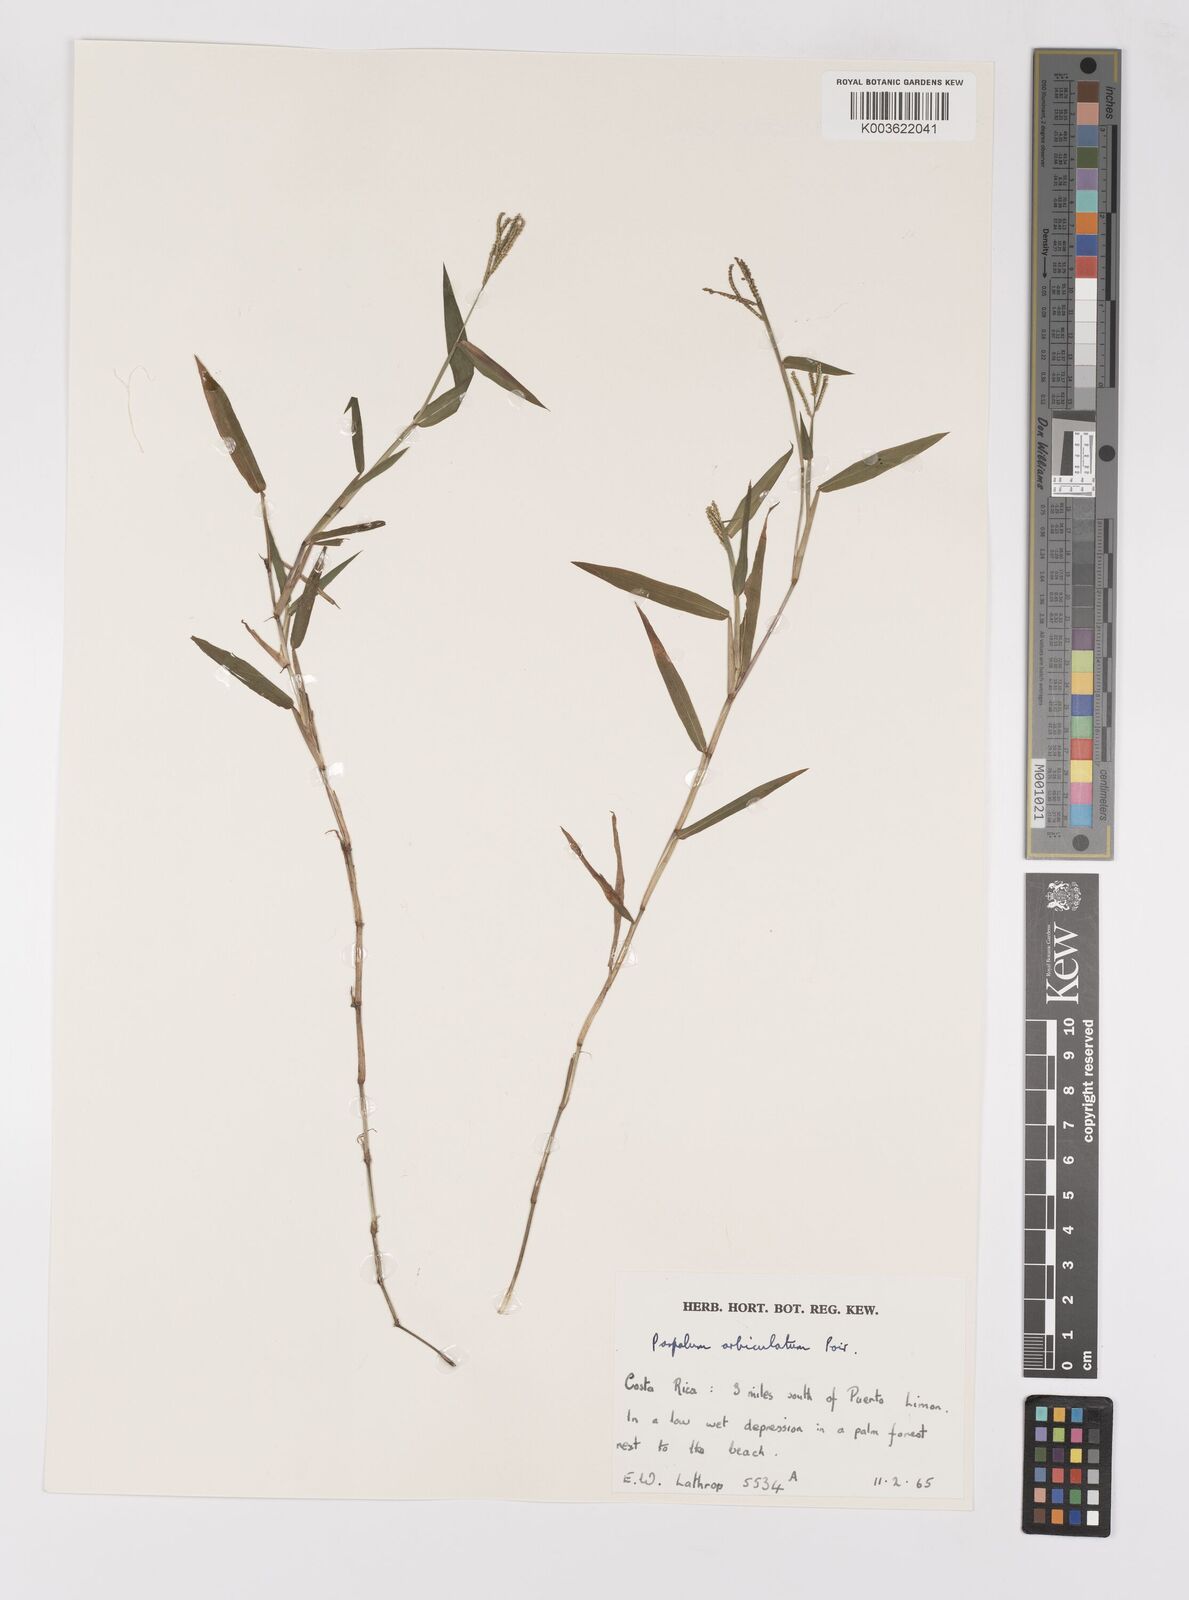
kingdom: Plantae
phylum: Tracheophyta
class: Liliopsida
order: Poales
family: Poaceae
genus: Paspalum
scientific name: Paspalum orbiculatum
